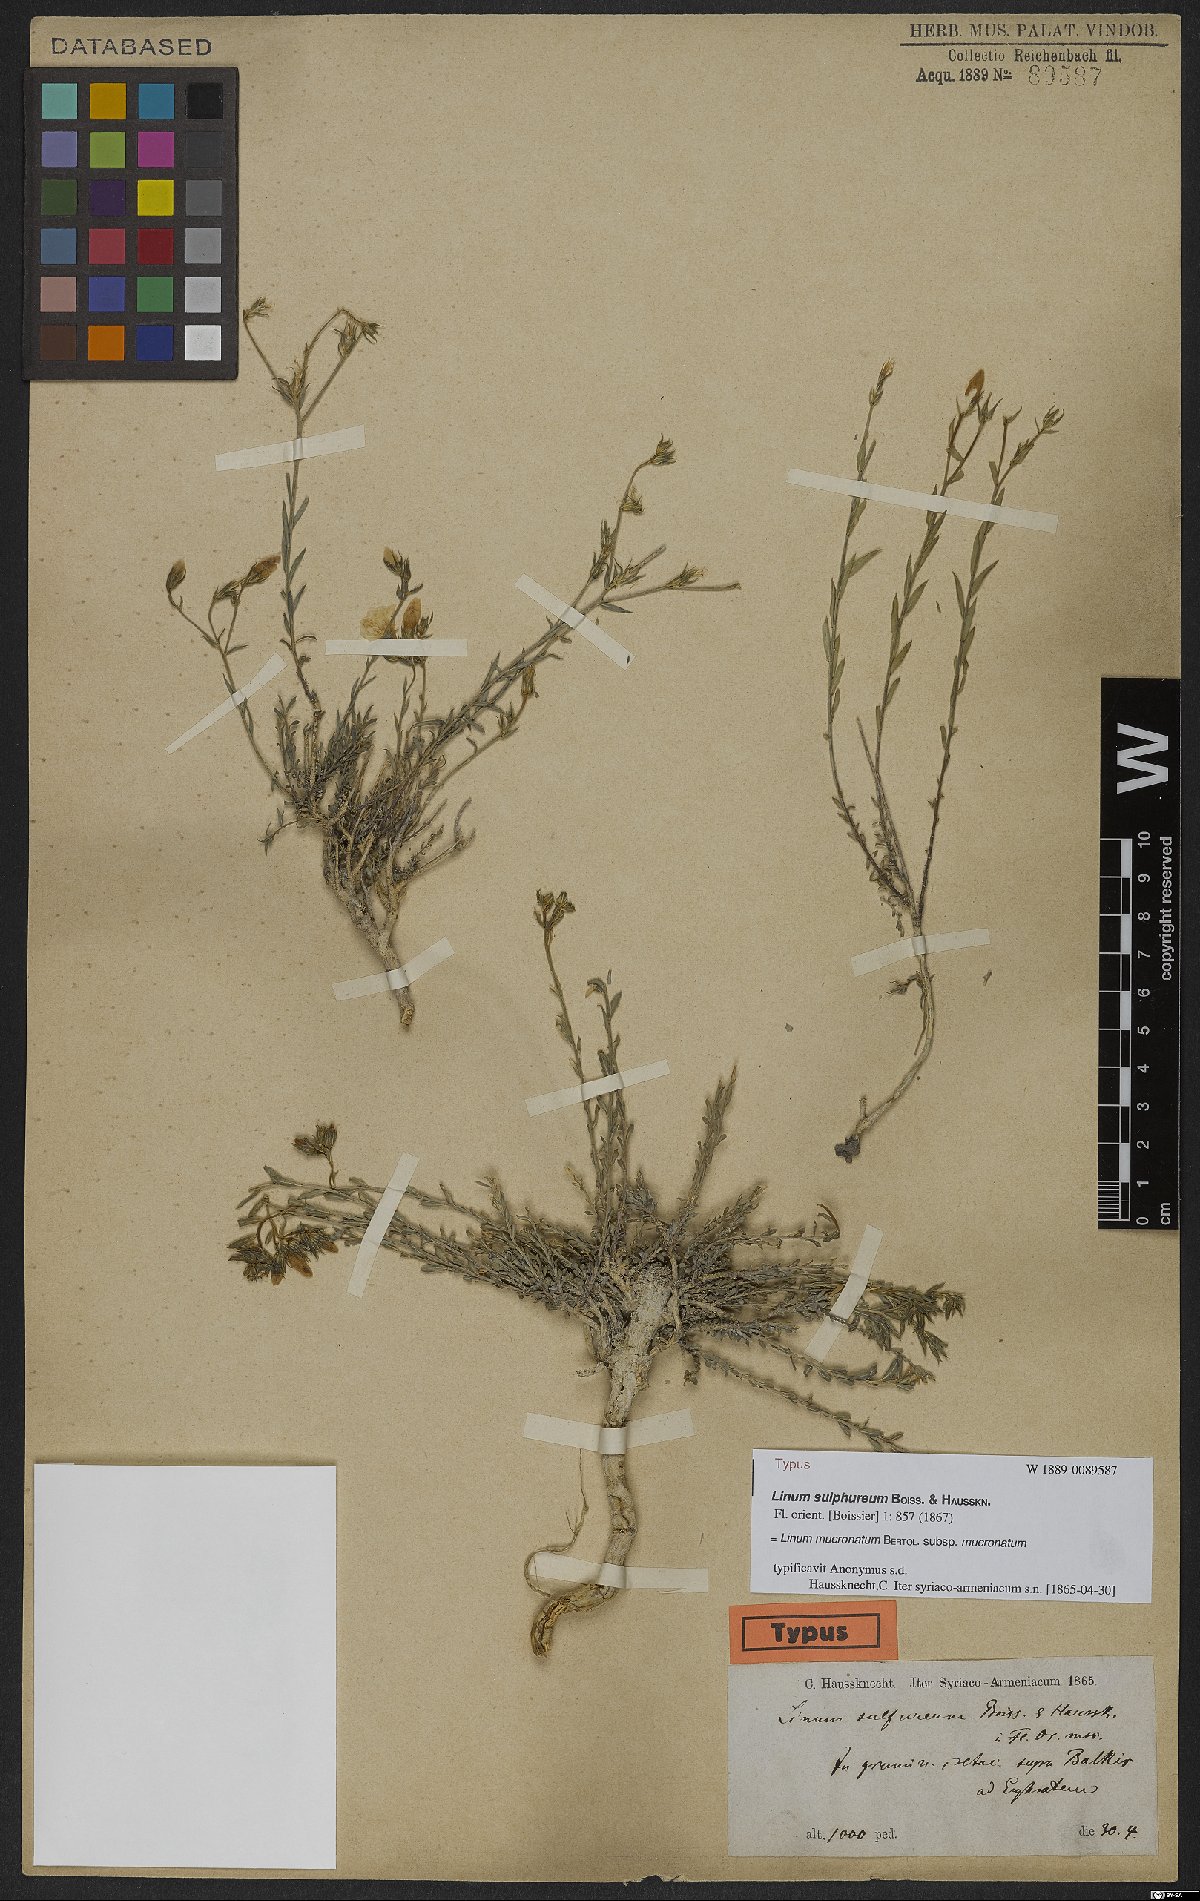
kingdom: Plantae
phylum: Tracheophyta
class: Magnoliopsida
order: Malpighiales
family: Linaceae
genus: Linum
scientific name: Linum mucronatum
